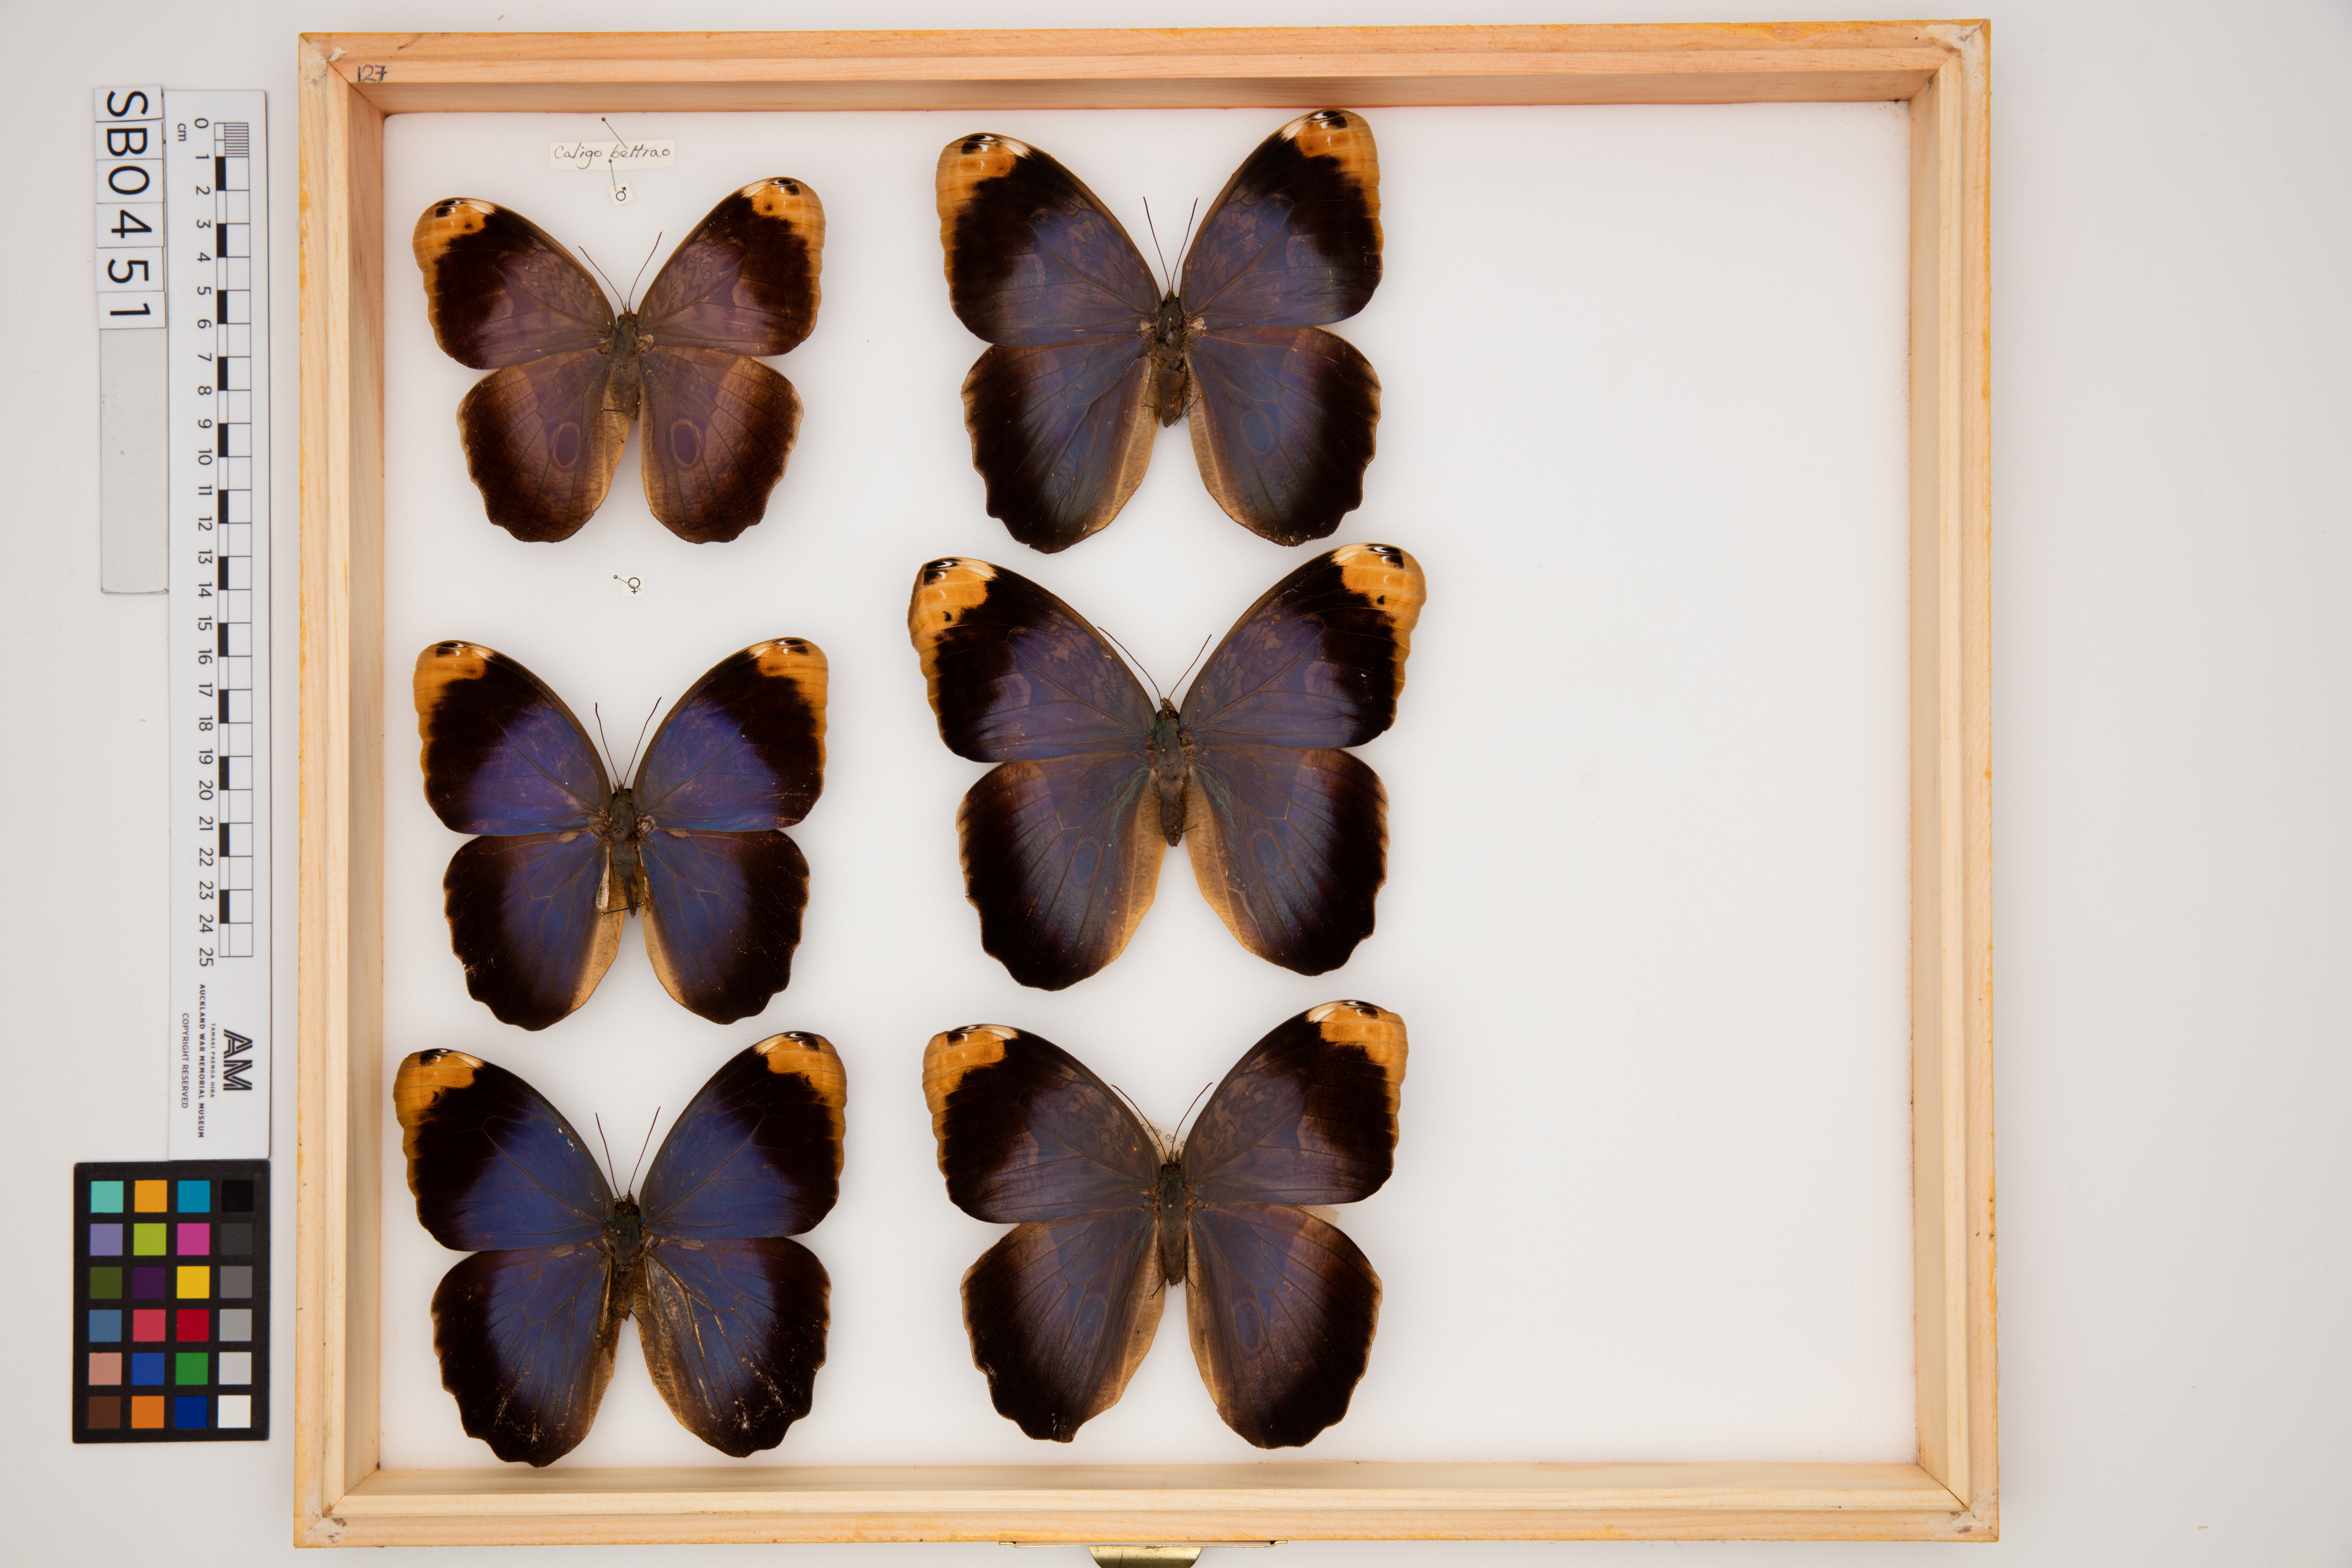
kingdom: Animalia
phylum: Arthropoda
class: Insecta
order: Lepidoptera
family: Nymphalidae
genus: Caligo
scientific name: Caligo beltrao
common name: Purple owl-butterfly
